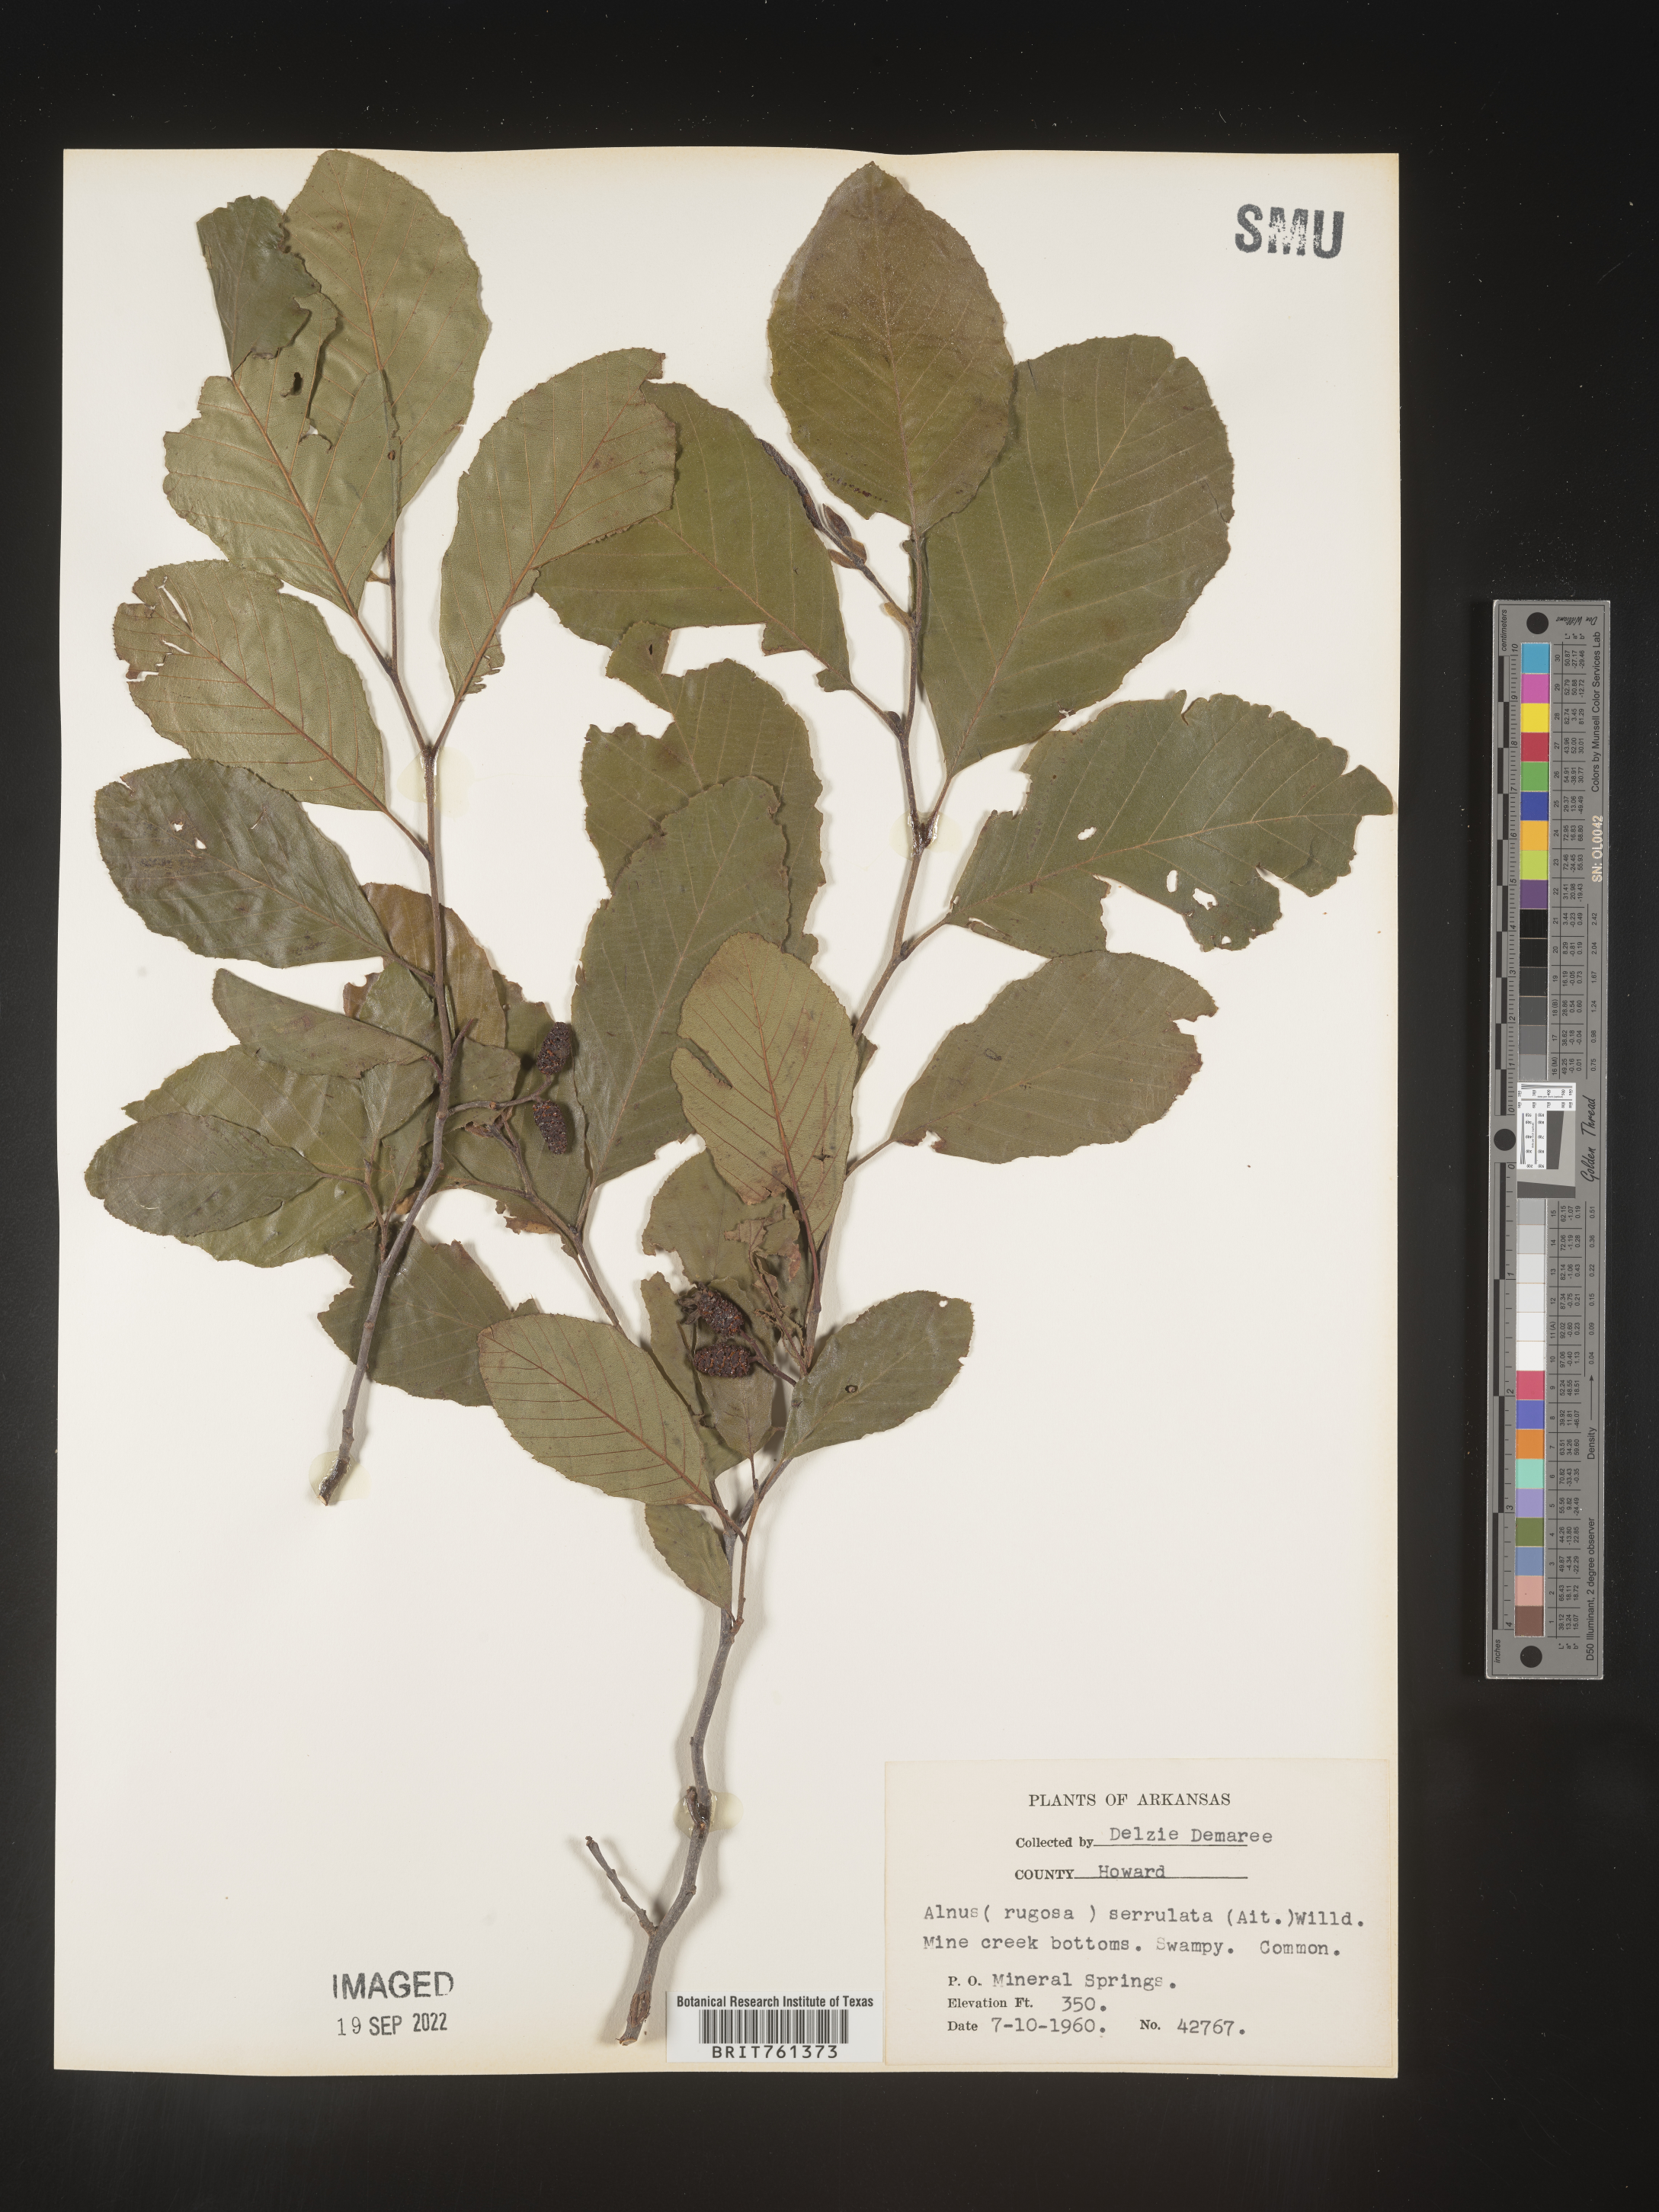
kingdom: Plantae
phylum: Tracheophyta
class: Magnoliopsida
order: Fagales
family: Betulaceae
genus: Alnus
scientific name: Alnus serrulata
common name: Hazel alder
